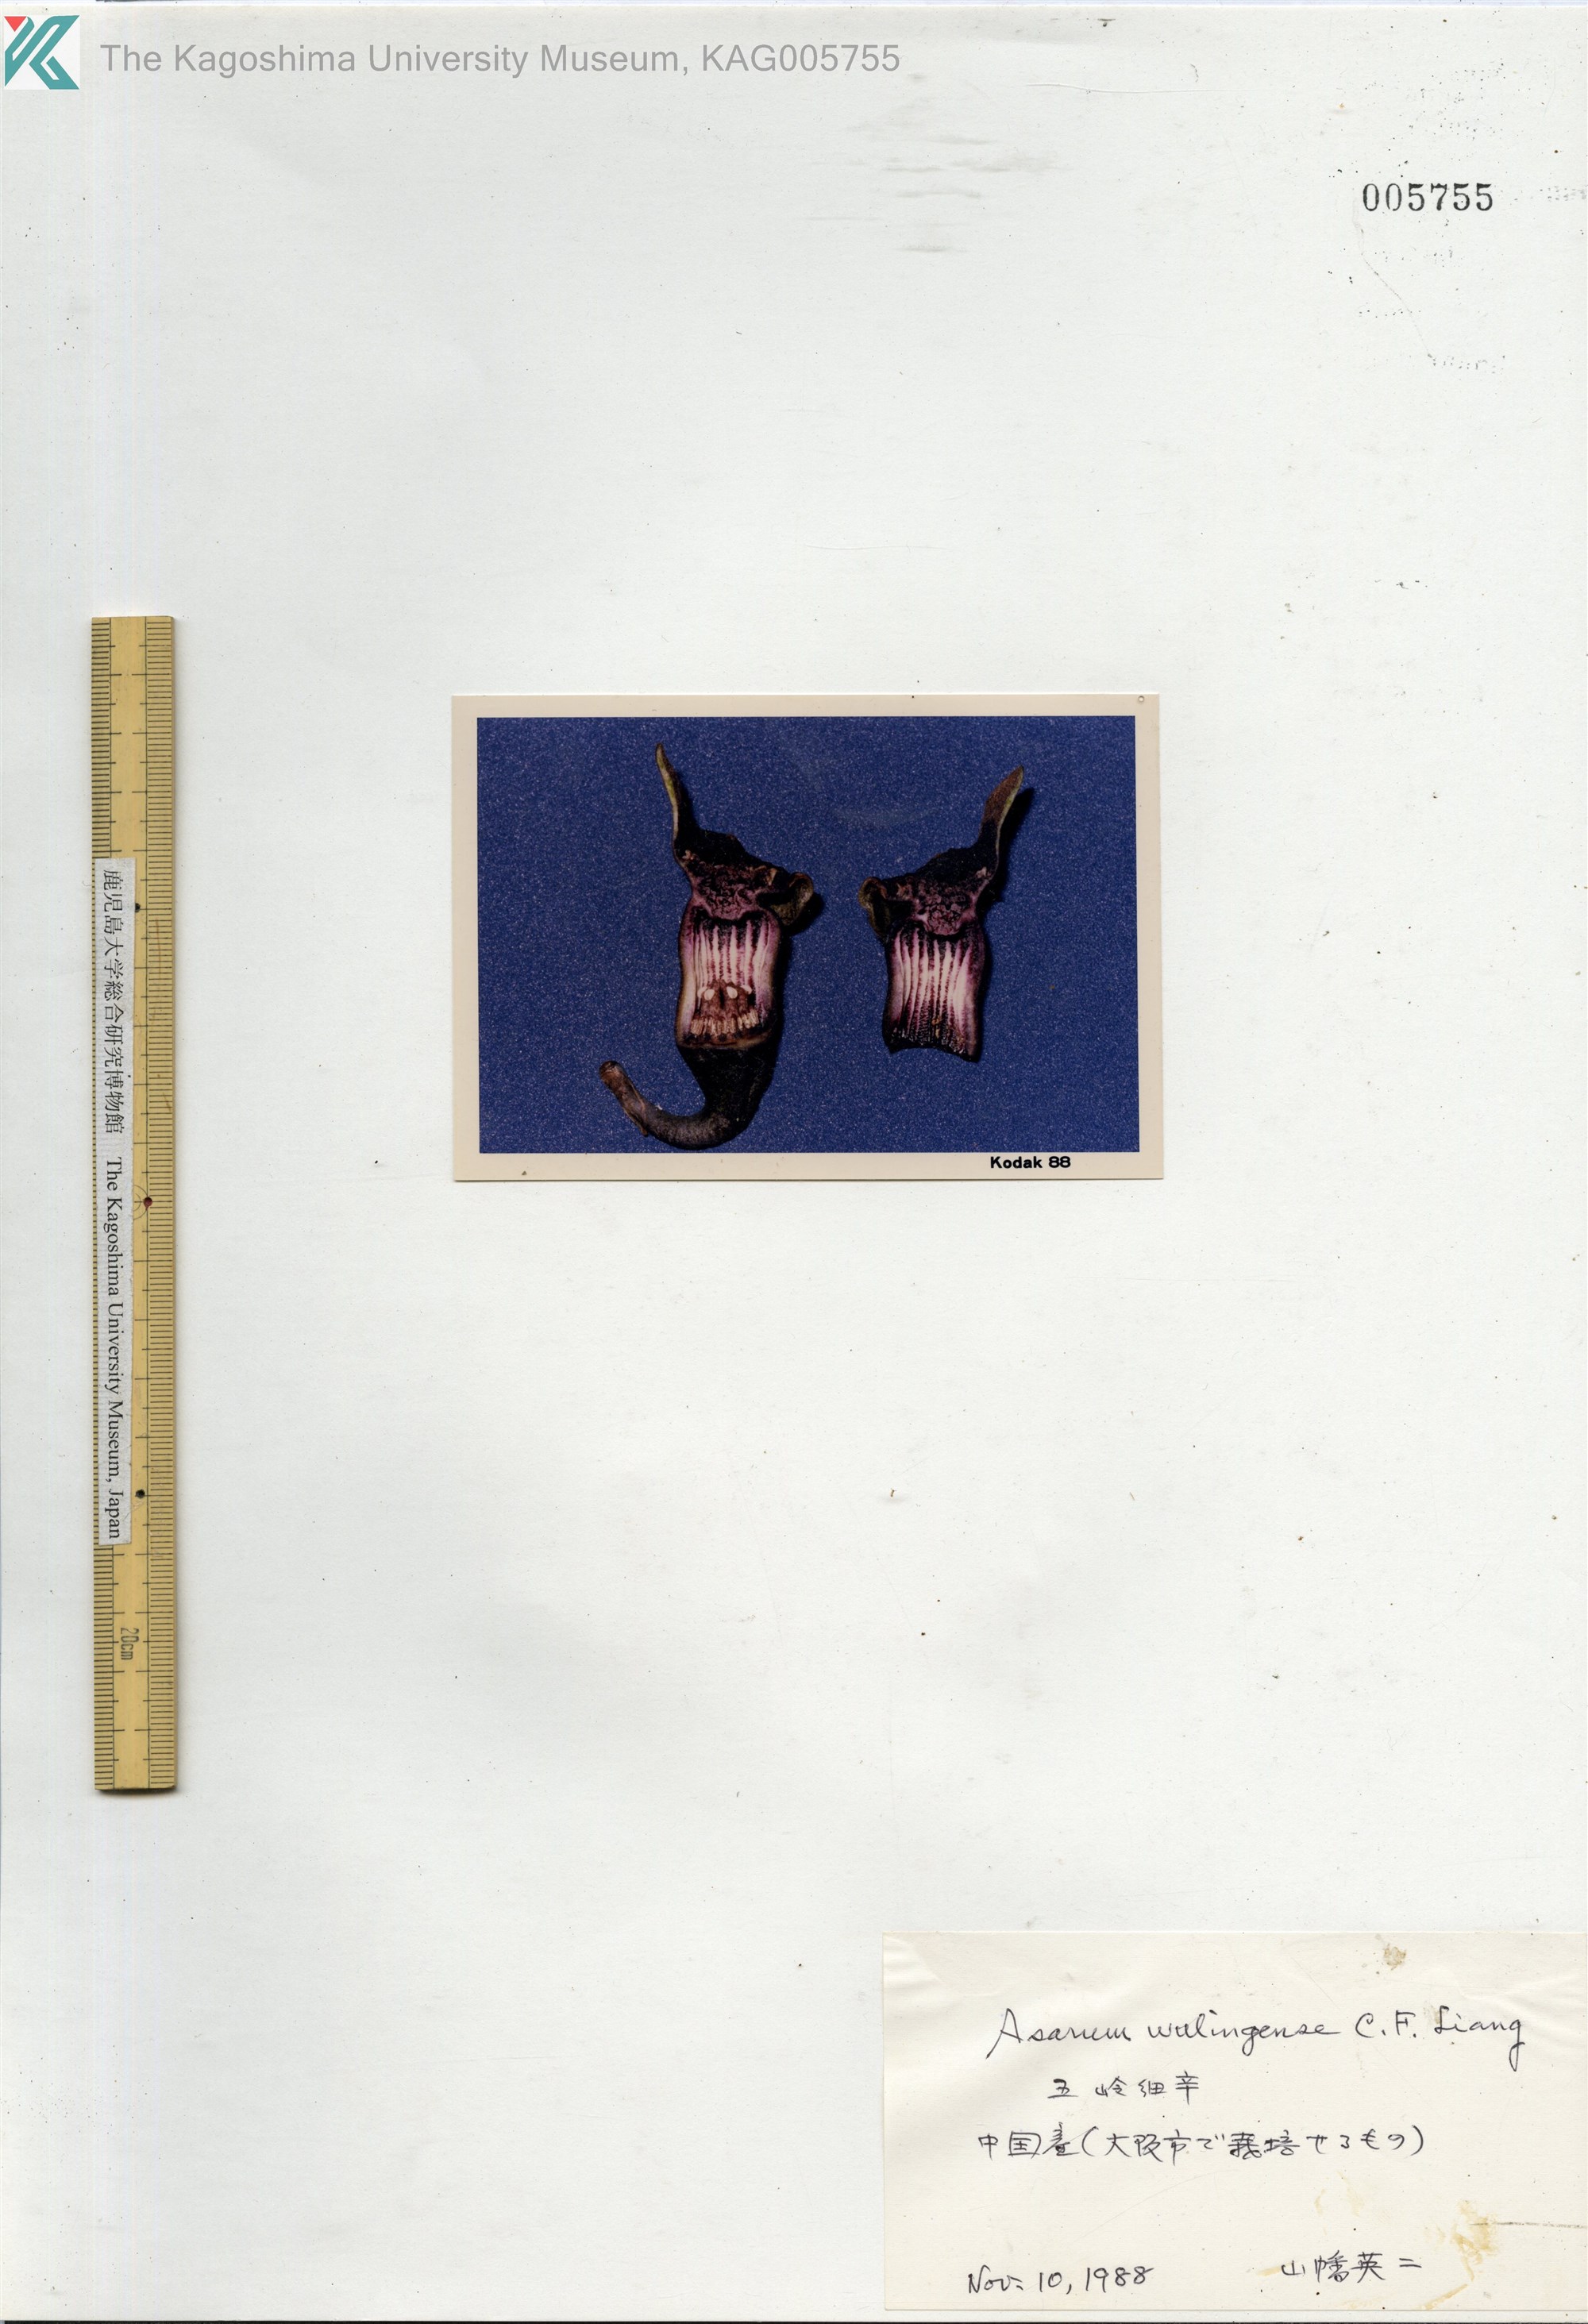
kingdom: Plantae
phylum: Tracheophyta
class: Magnoliopsida
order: Piperales
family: Aristolochiaceae
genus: Asarum
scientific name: Asarum
